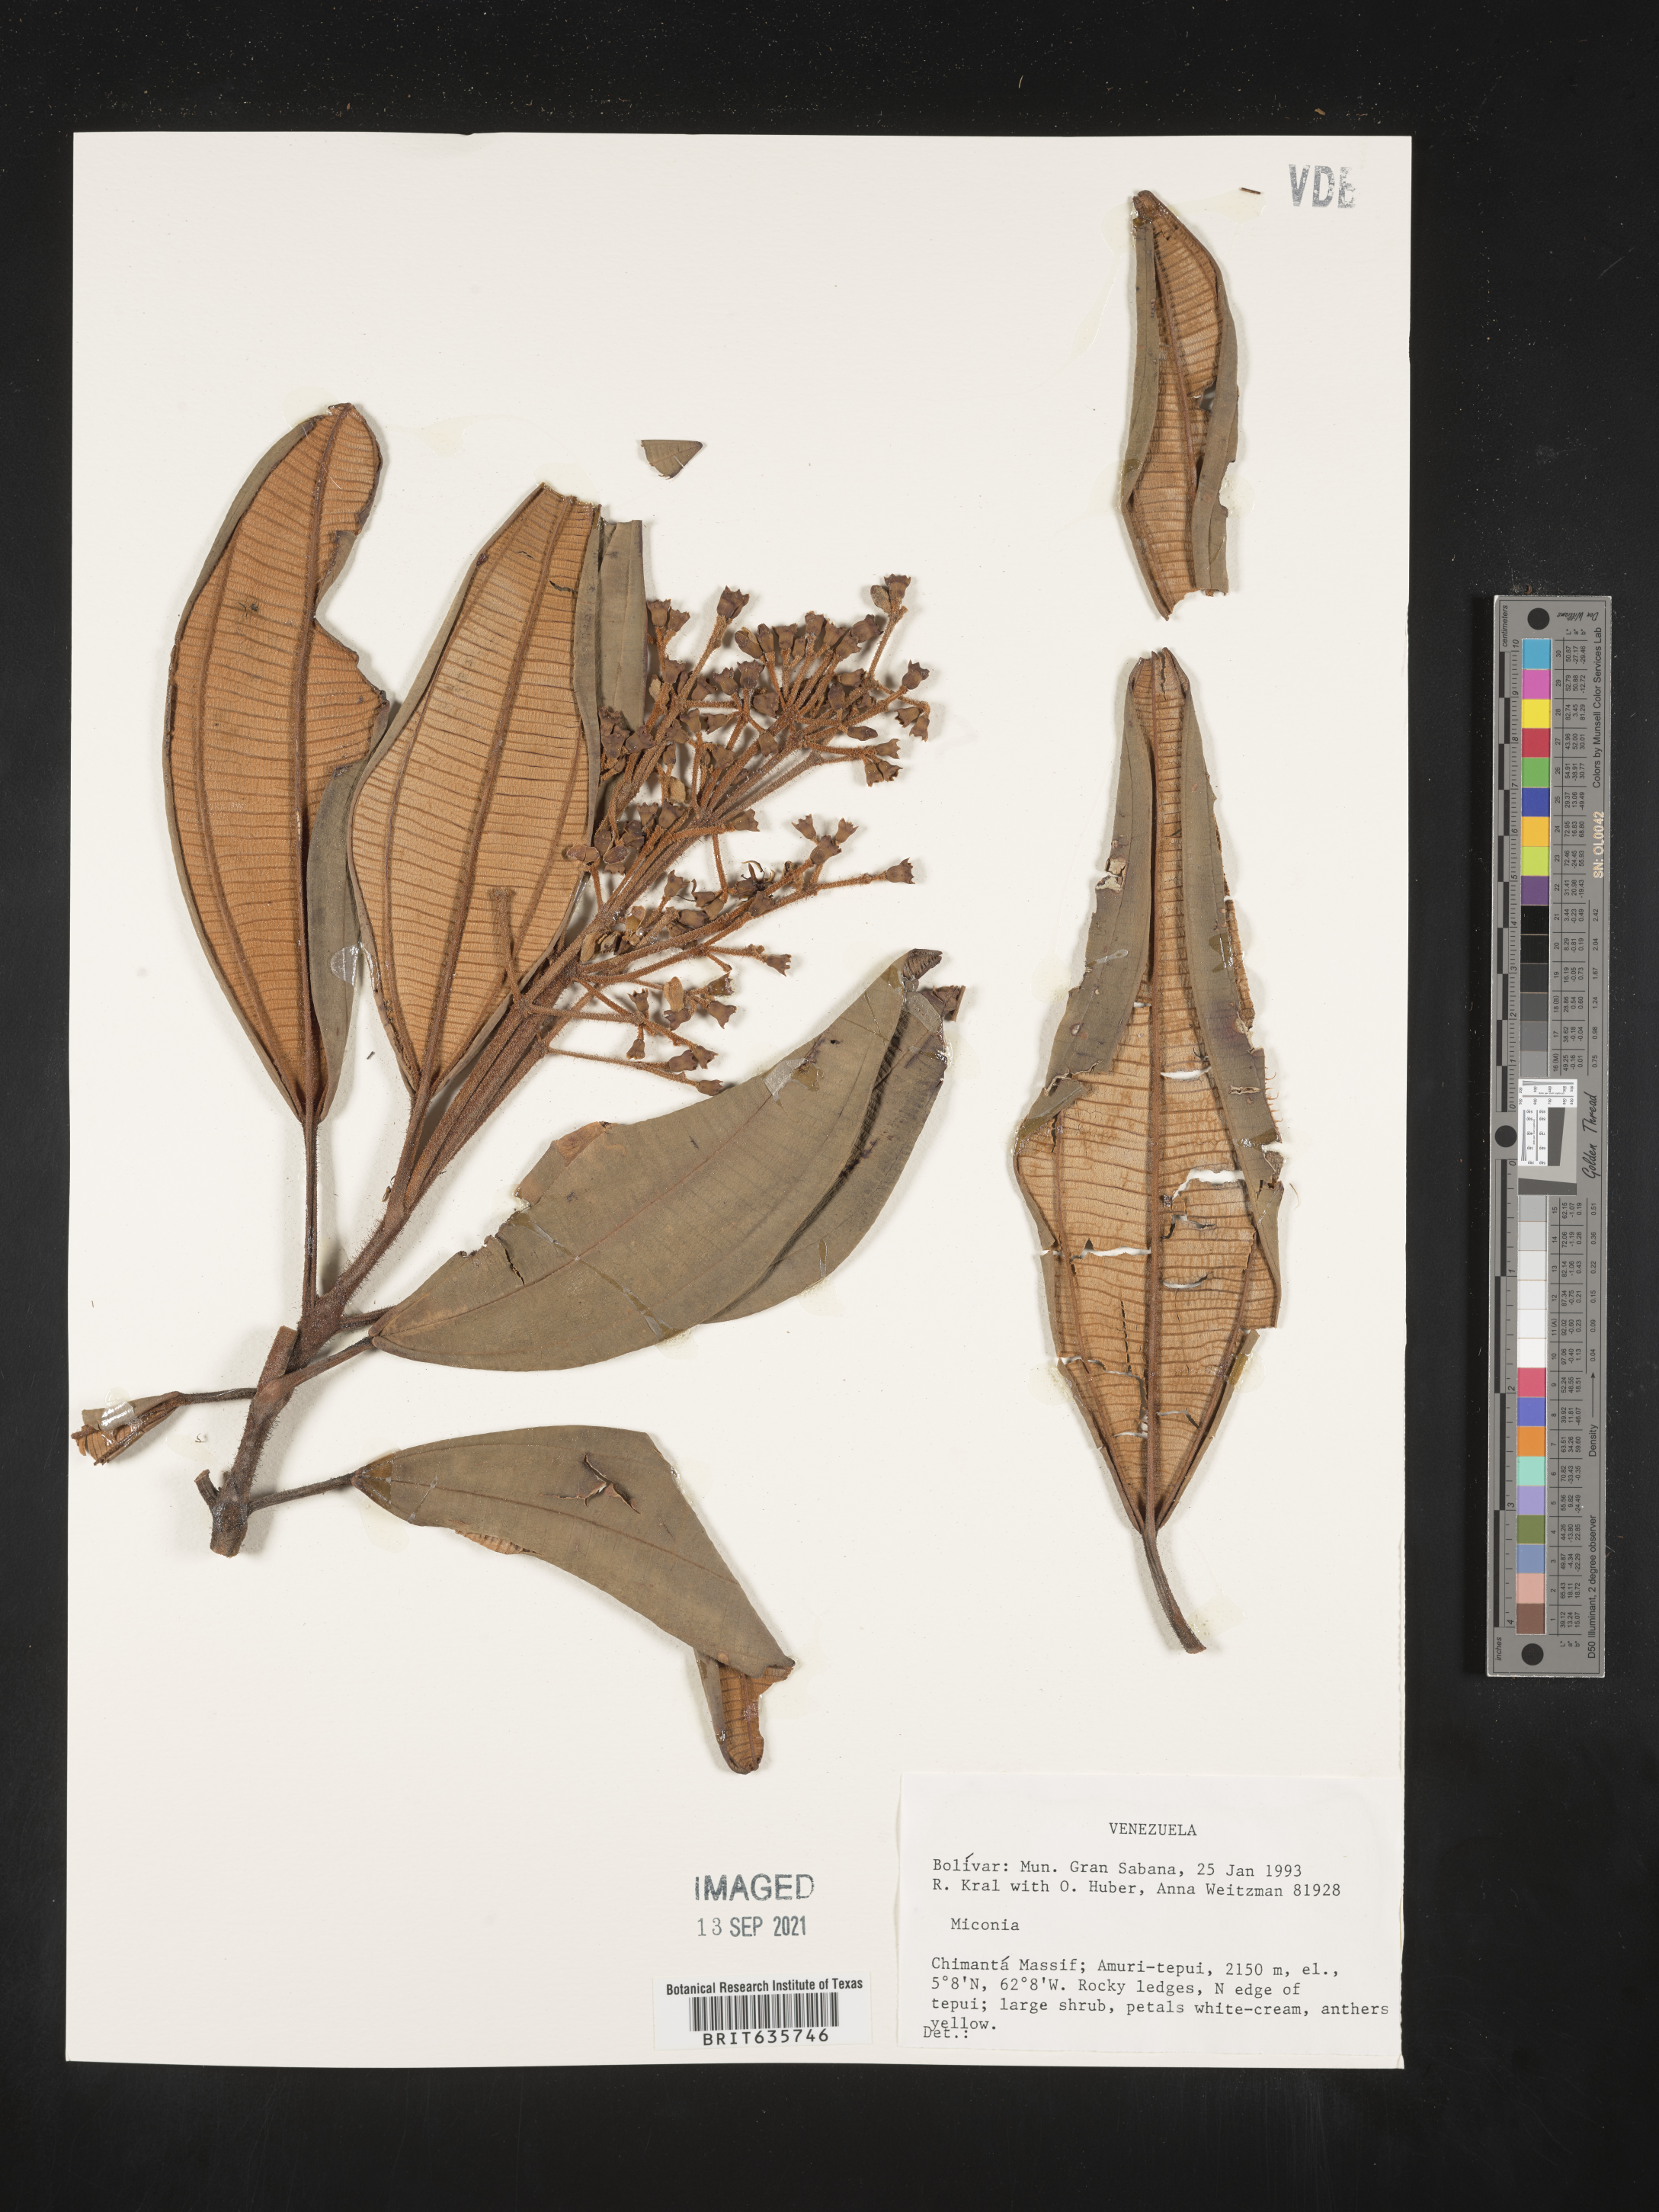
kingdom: Plantae
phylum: Tracheophyta
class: Magnoliopsida
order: Myrtales
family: Melastomataceae
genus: Miconia
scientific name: Miconia
